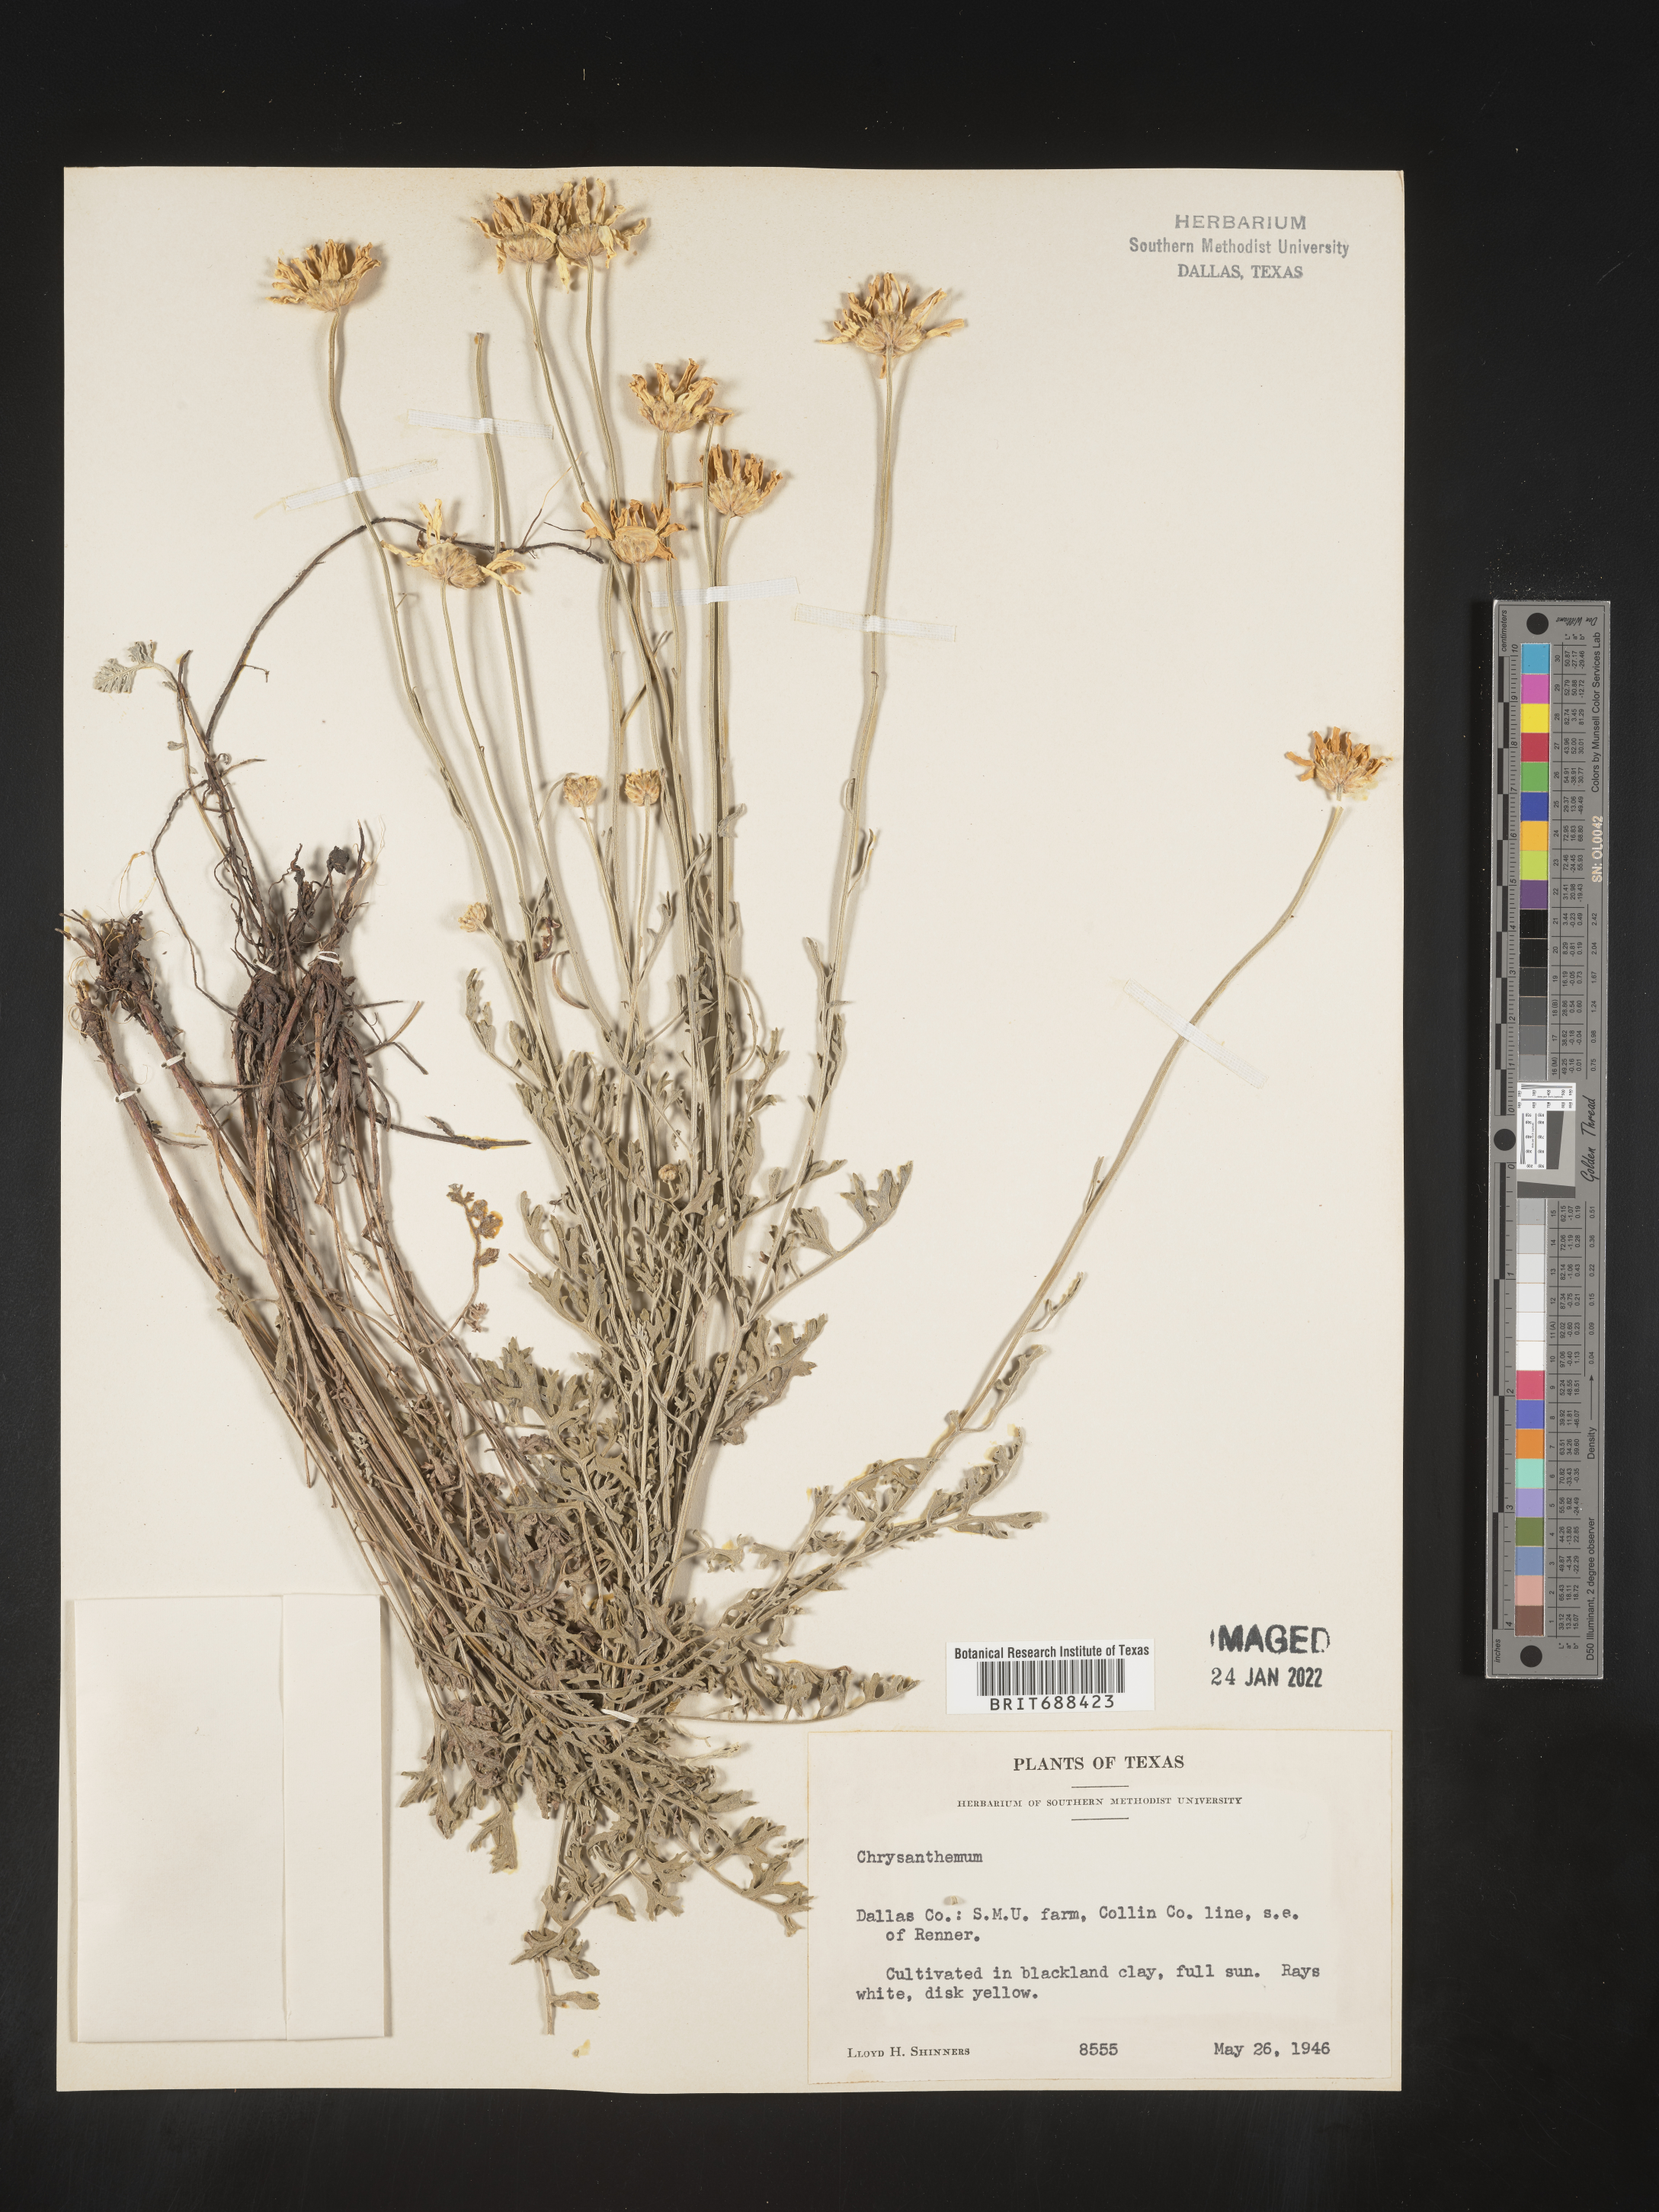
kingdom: Plantae
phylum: Tracheophyta
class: Magnoliopsida
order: Asterales
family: Asteraceae
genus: Chrysanthemum
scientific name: Chrysanthemum
